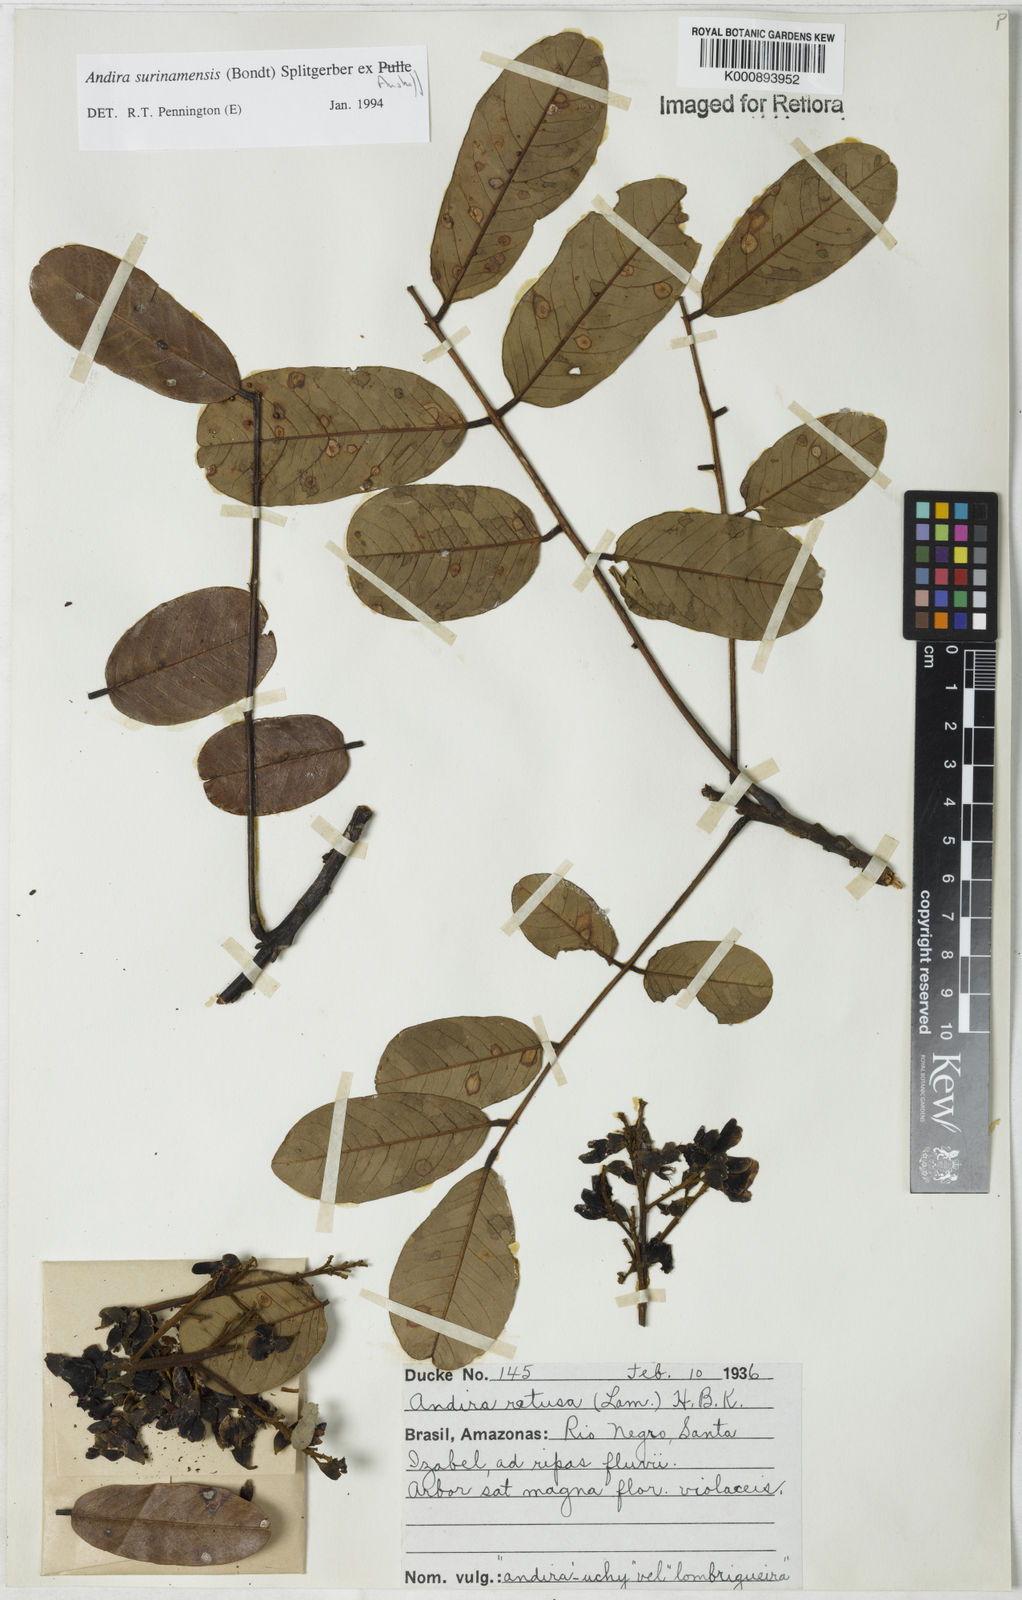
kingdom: Plantae
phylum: Tracheophyta
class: Magnoliopsida
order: Fabales
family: Fabaceae
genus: Andira
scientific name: Andira
